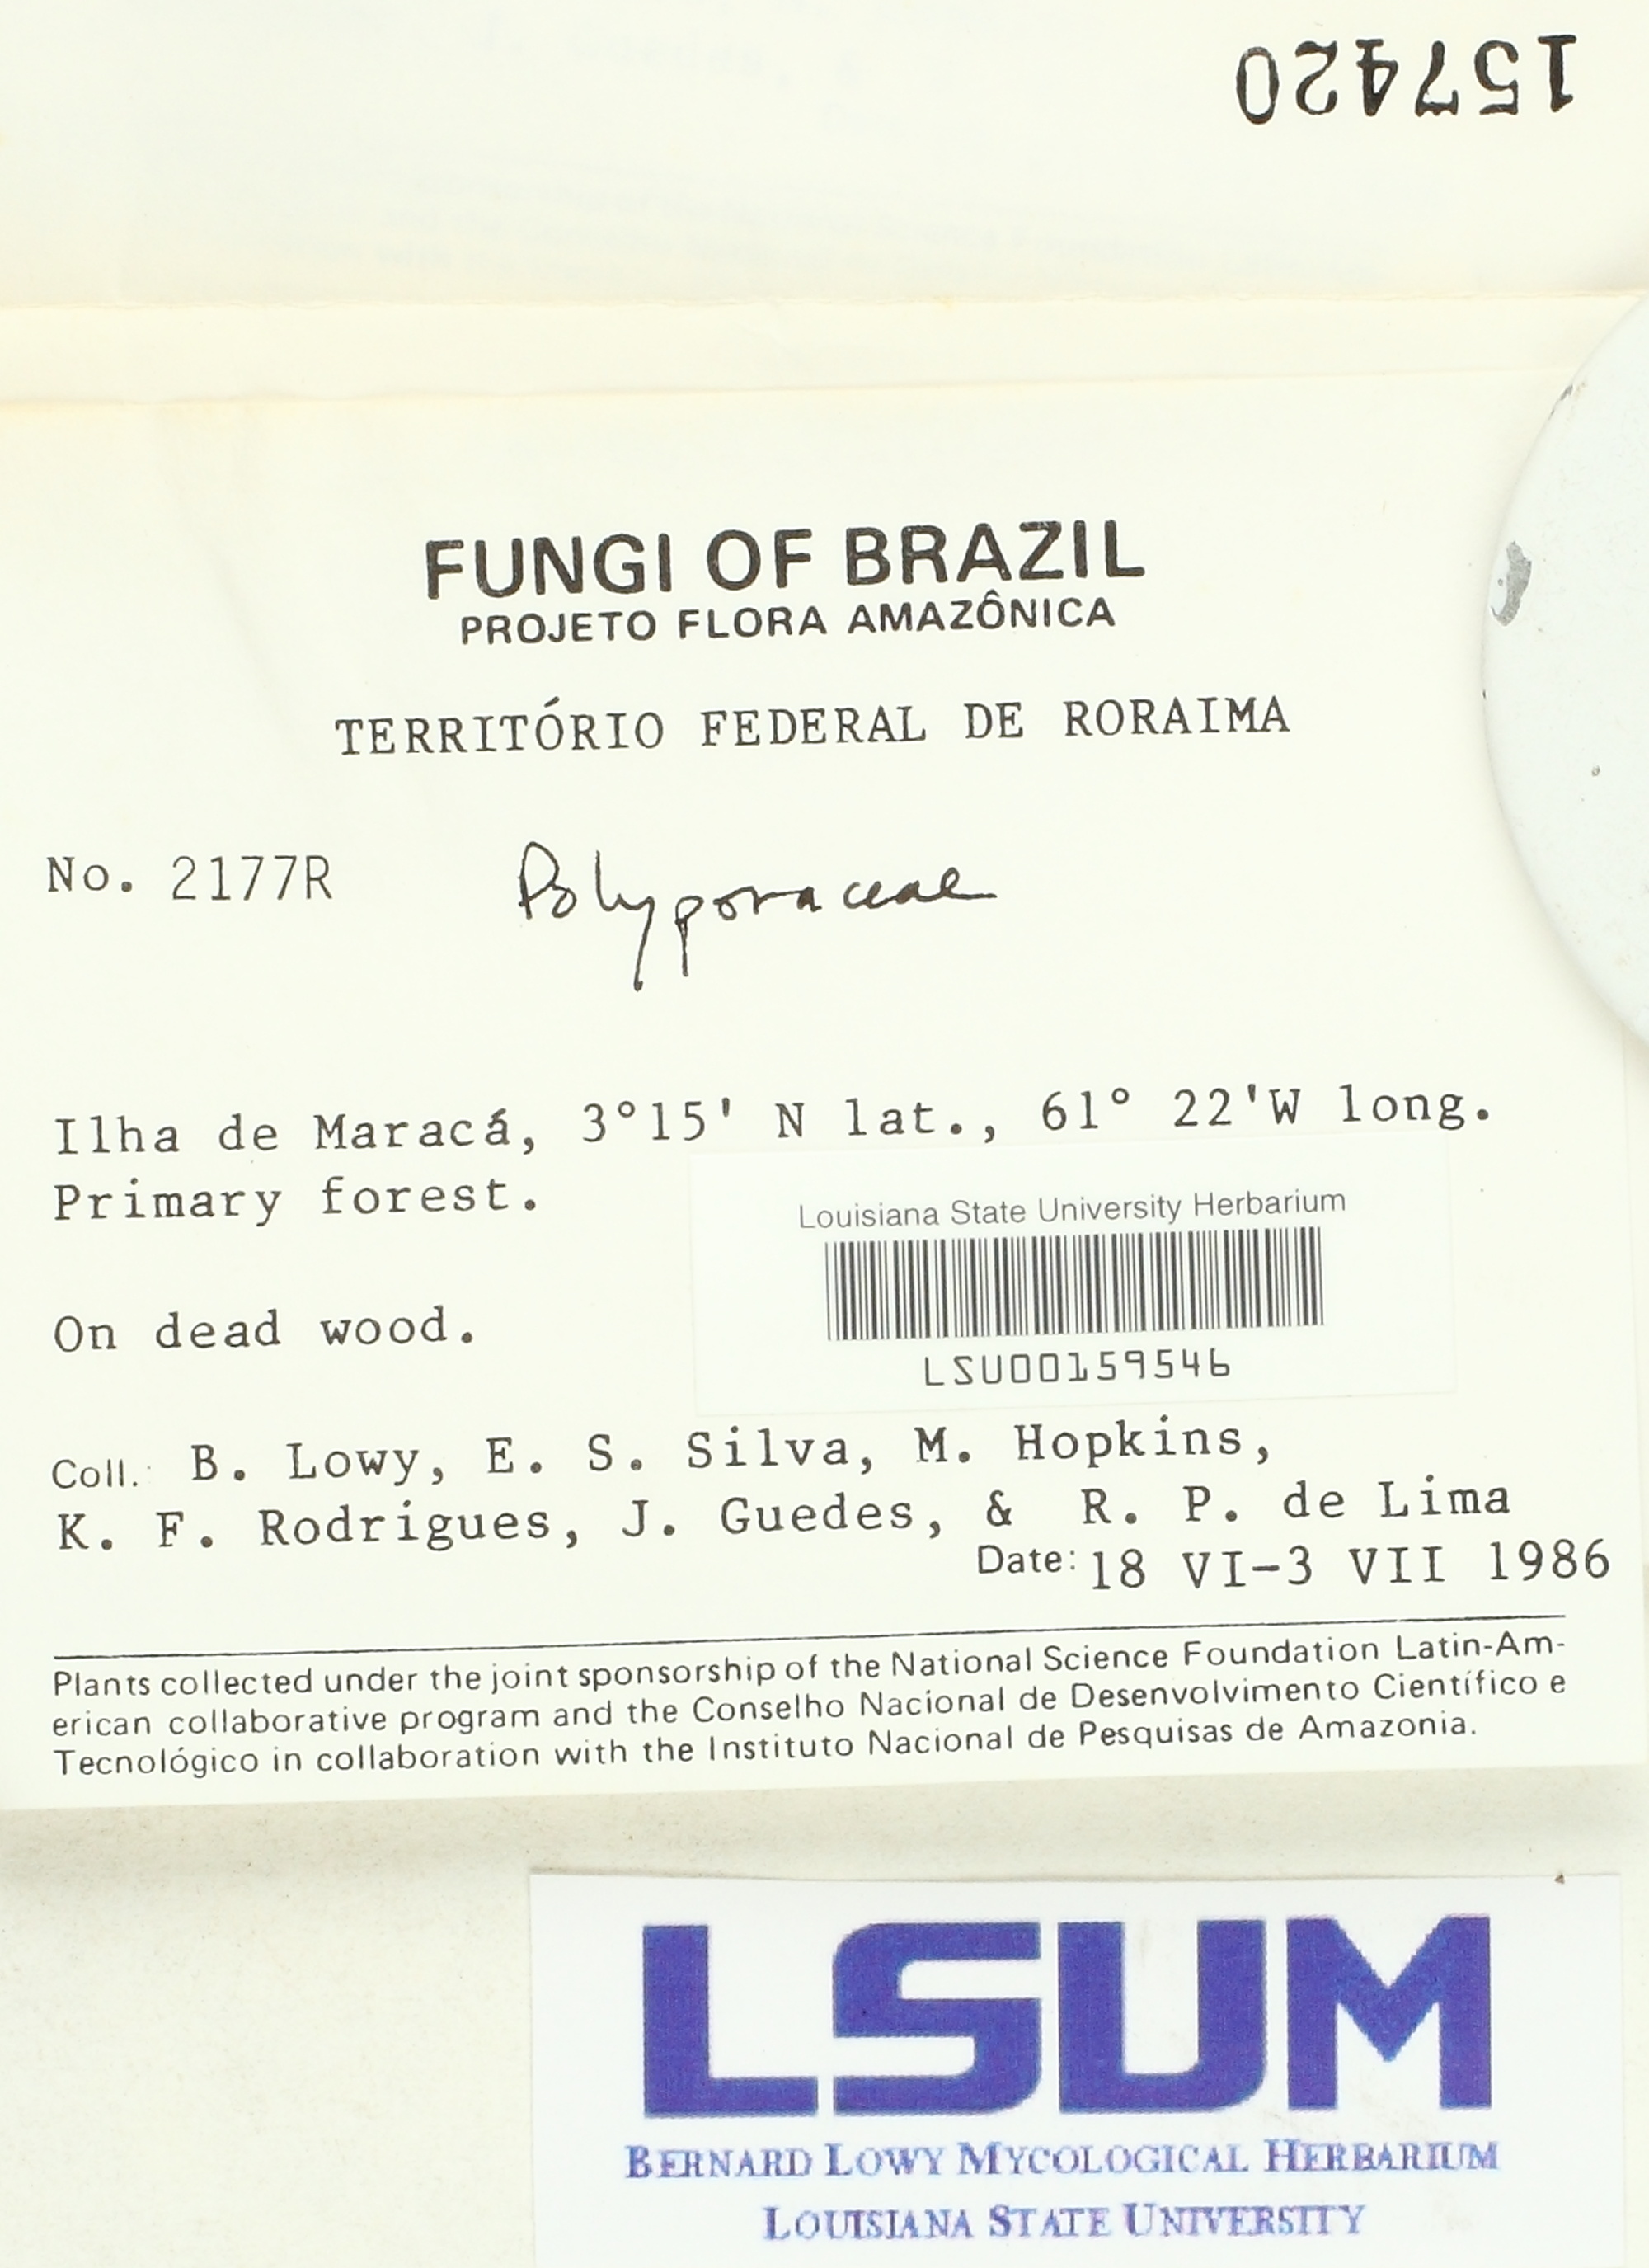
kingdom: Fungi
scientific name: Fungi
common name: Fungi
